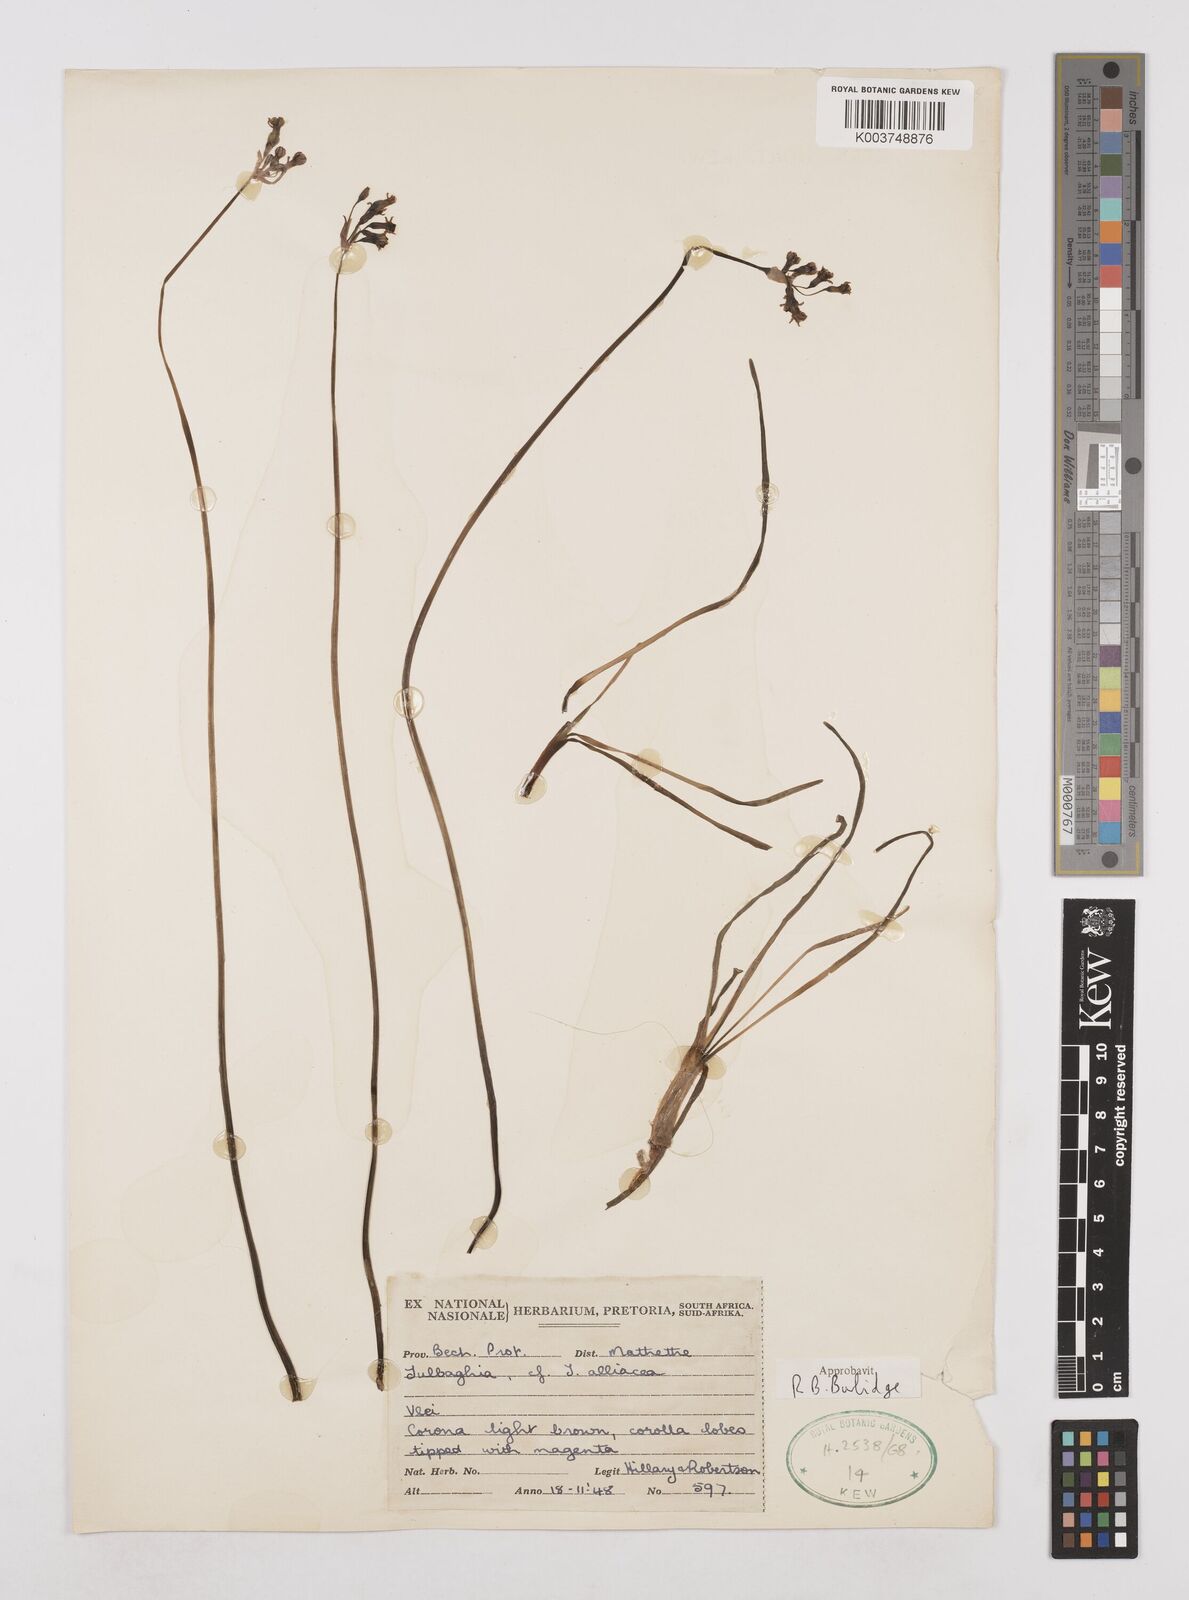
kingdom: Plantae
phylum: Tracheophyta
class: Liliopsida
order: Asparagales
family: Amaryllidaceae
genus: Tulbaghia
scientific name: Tulbaghia alliacea
